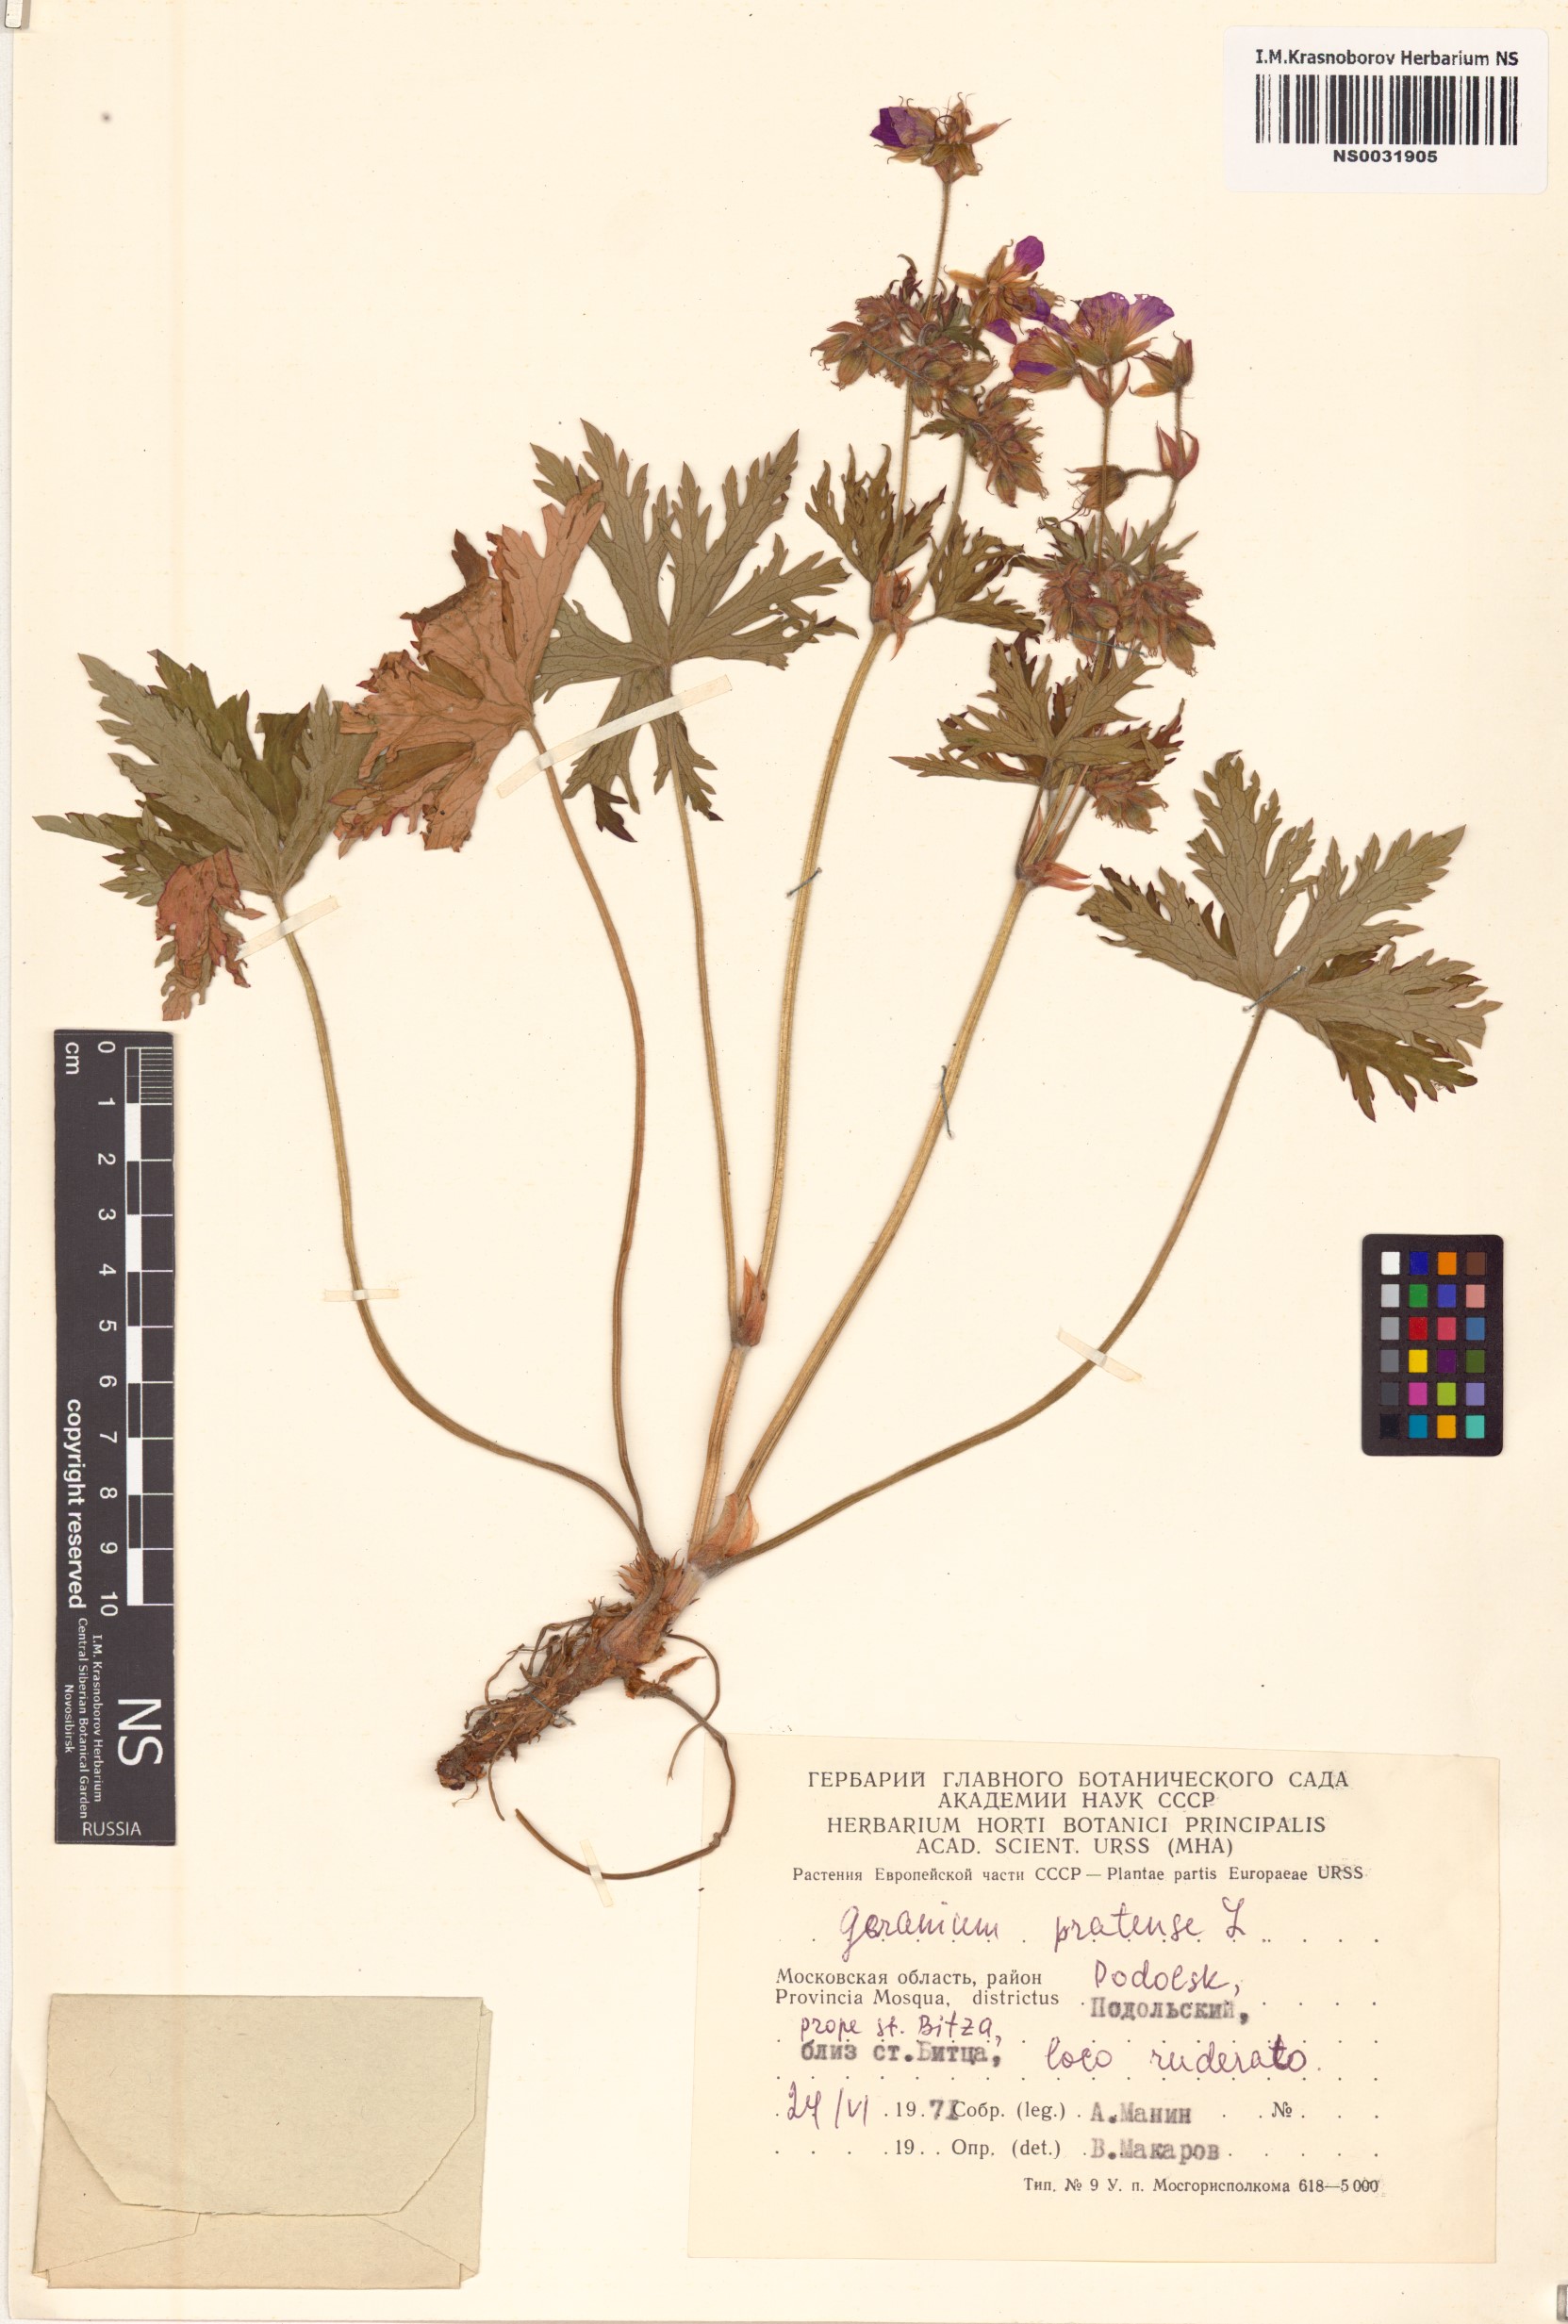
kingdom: Plantae
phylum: Tracheophyta
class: Magnoliopsida
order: Geraniales
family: Geraniaceae
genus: Geranium
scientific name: Geranium pratense
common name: Meadow crane's-bill
